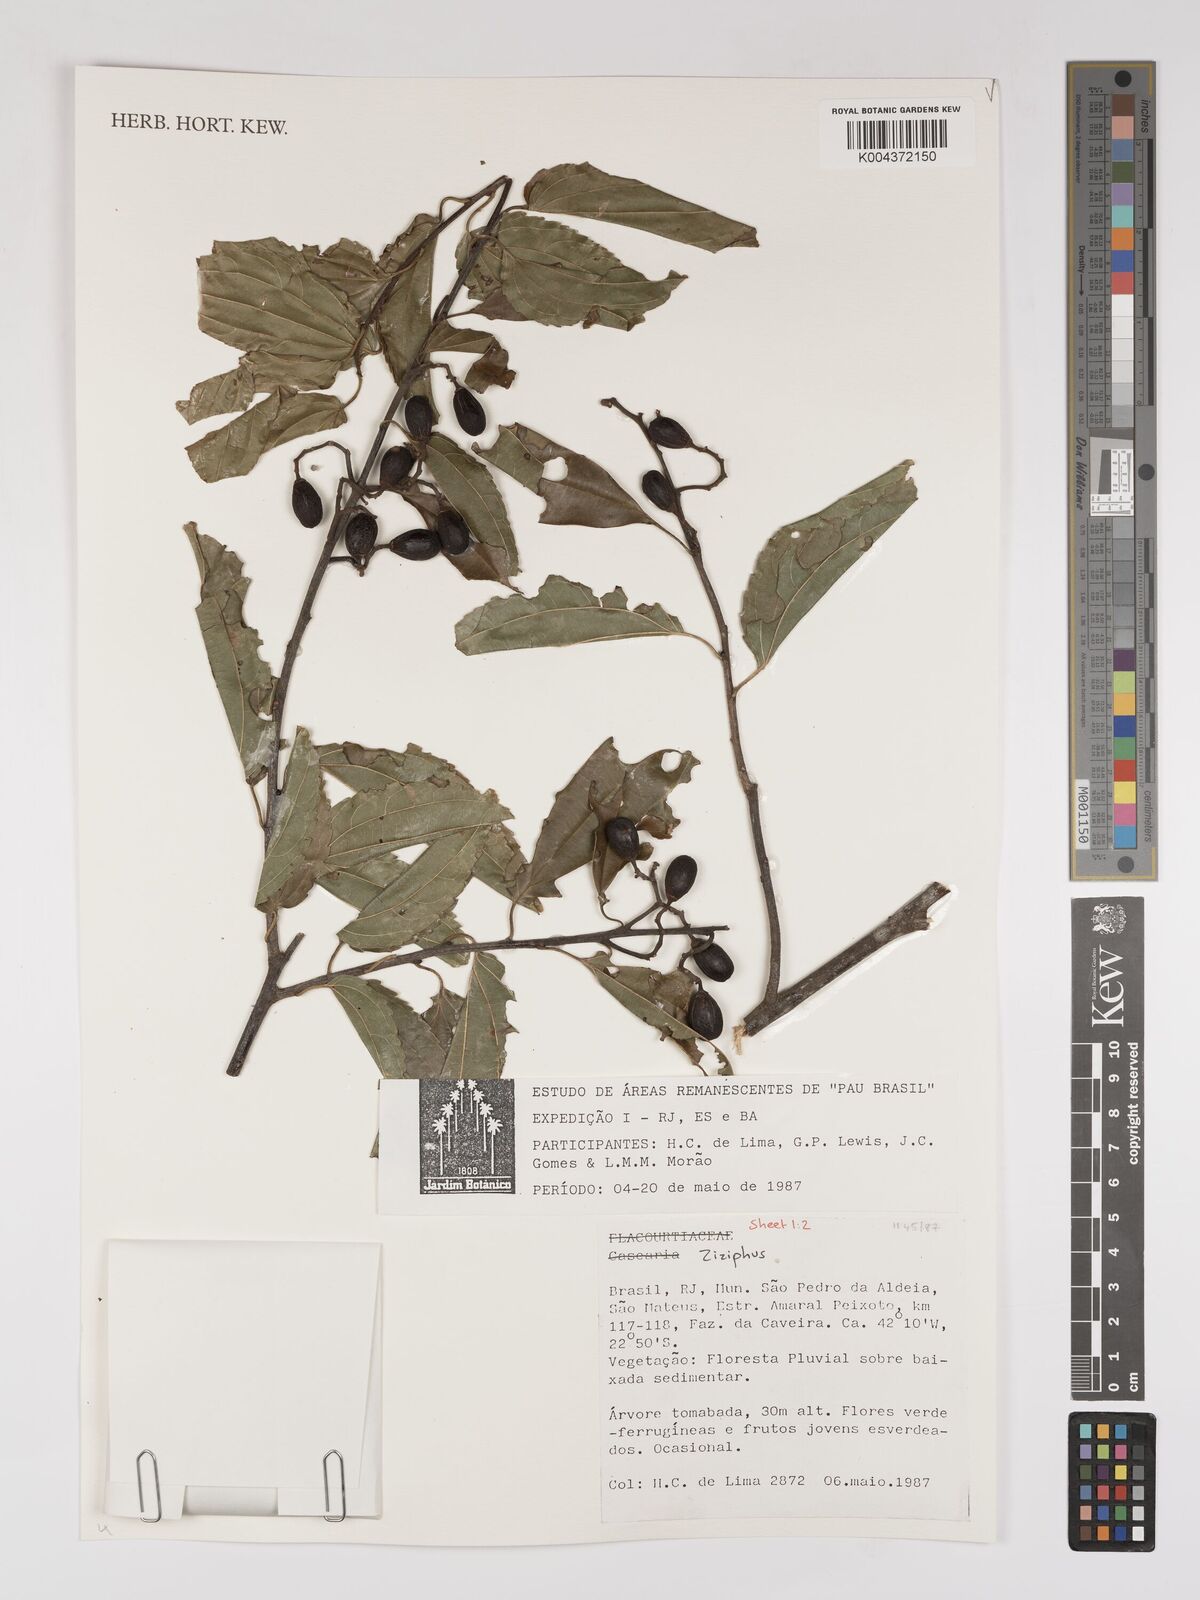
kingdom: Plantae
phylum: Tracheophyta
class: Magnoliopsida
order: Rosales
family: Rhamnaceae
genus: Ziziphus
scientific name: Ziziphus
